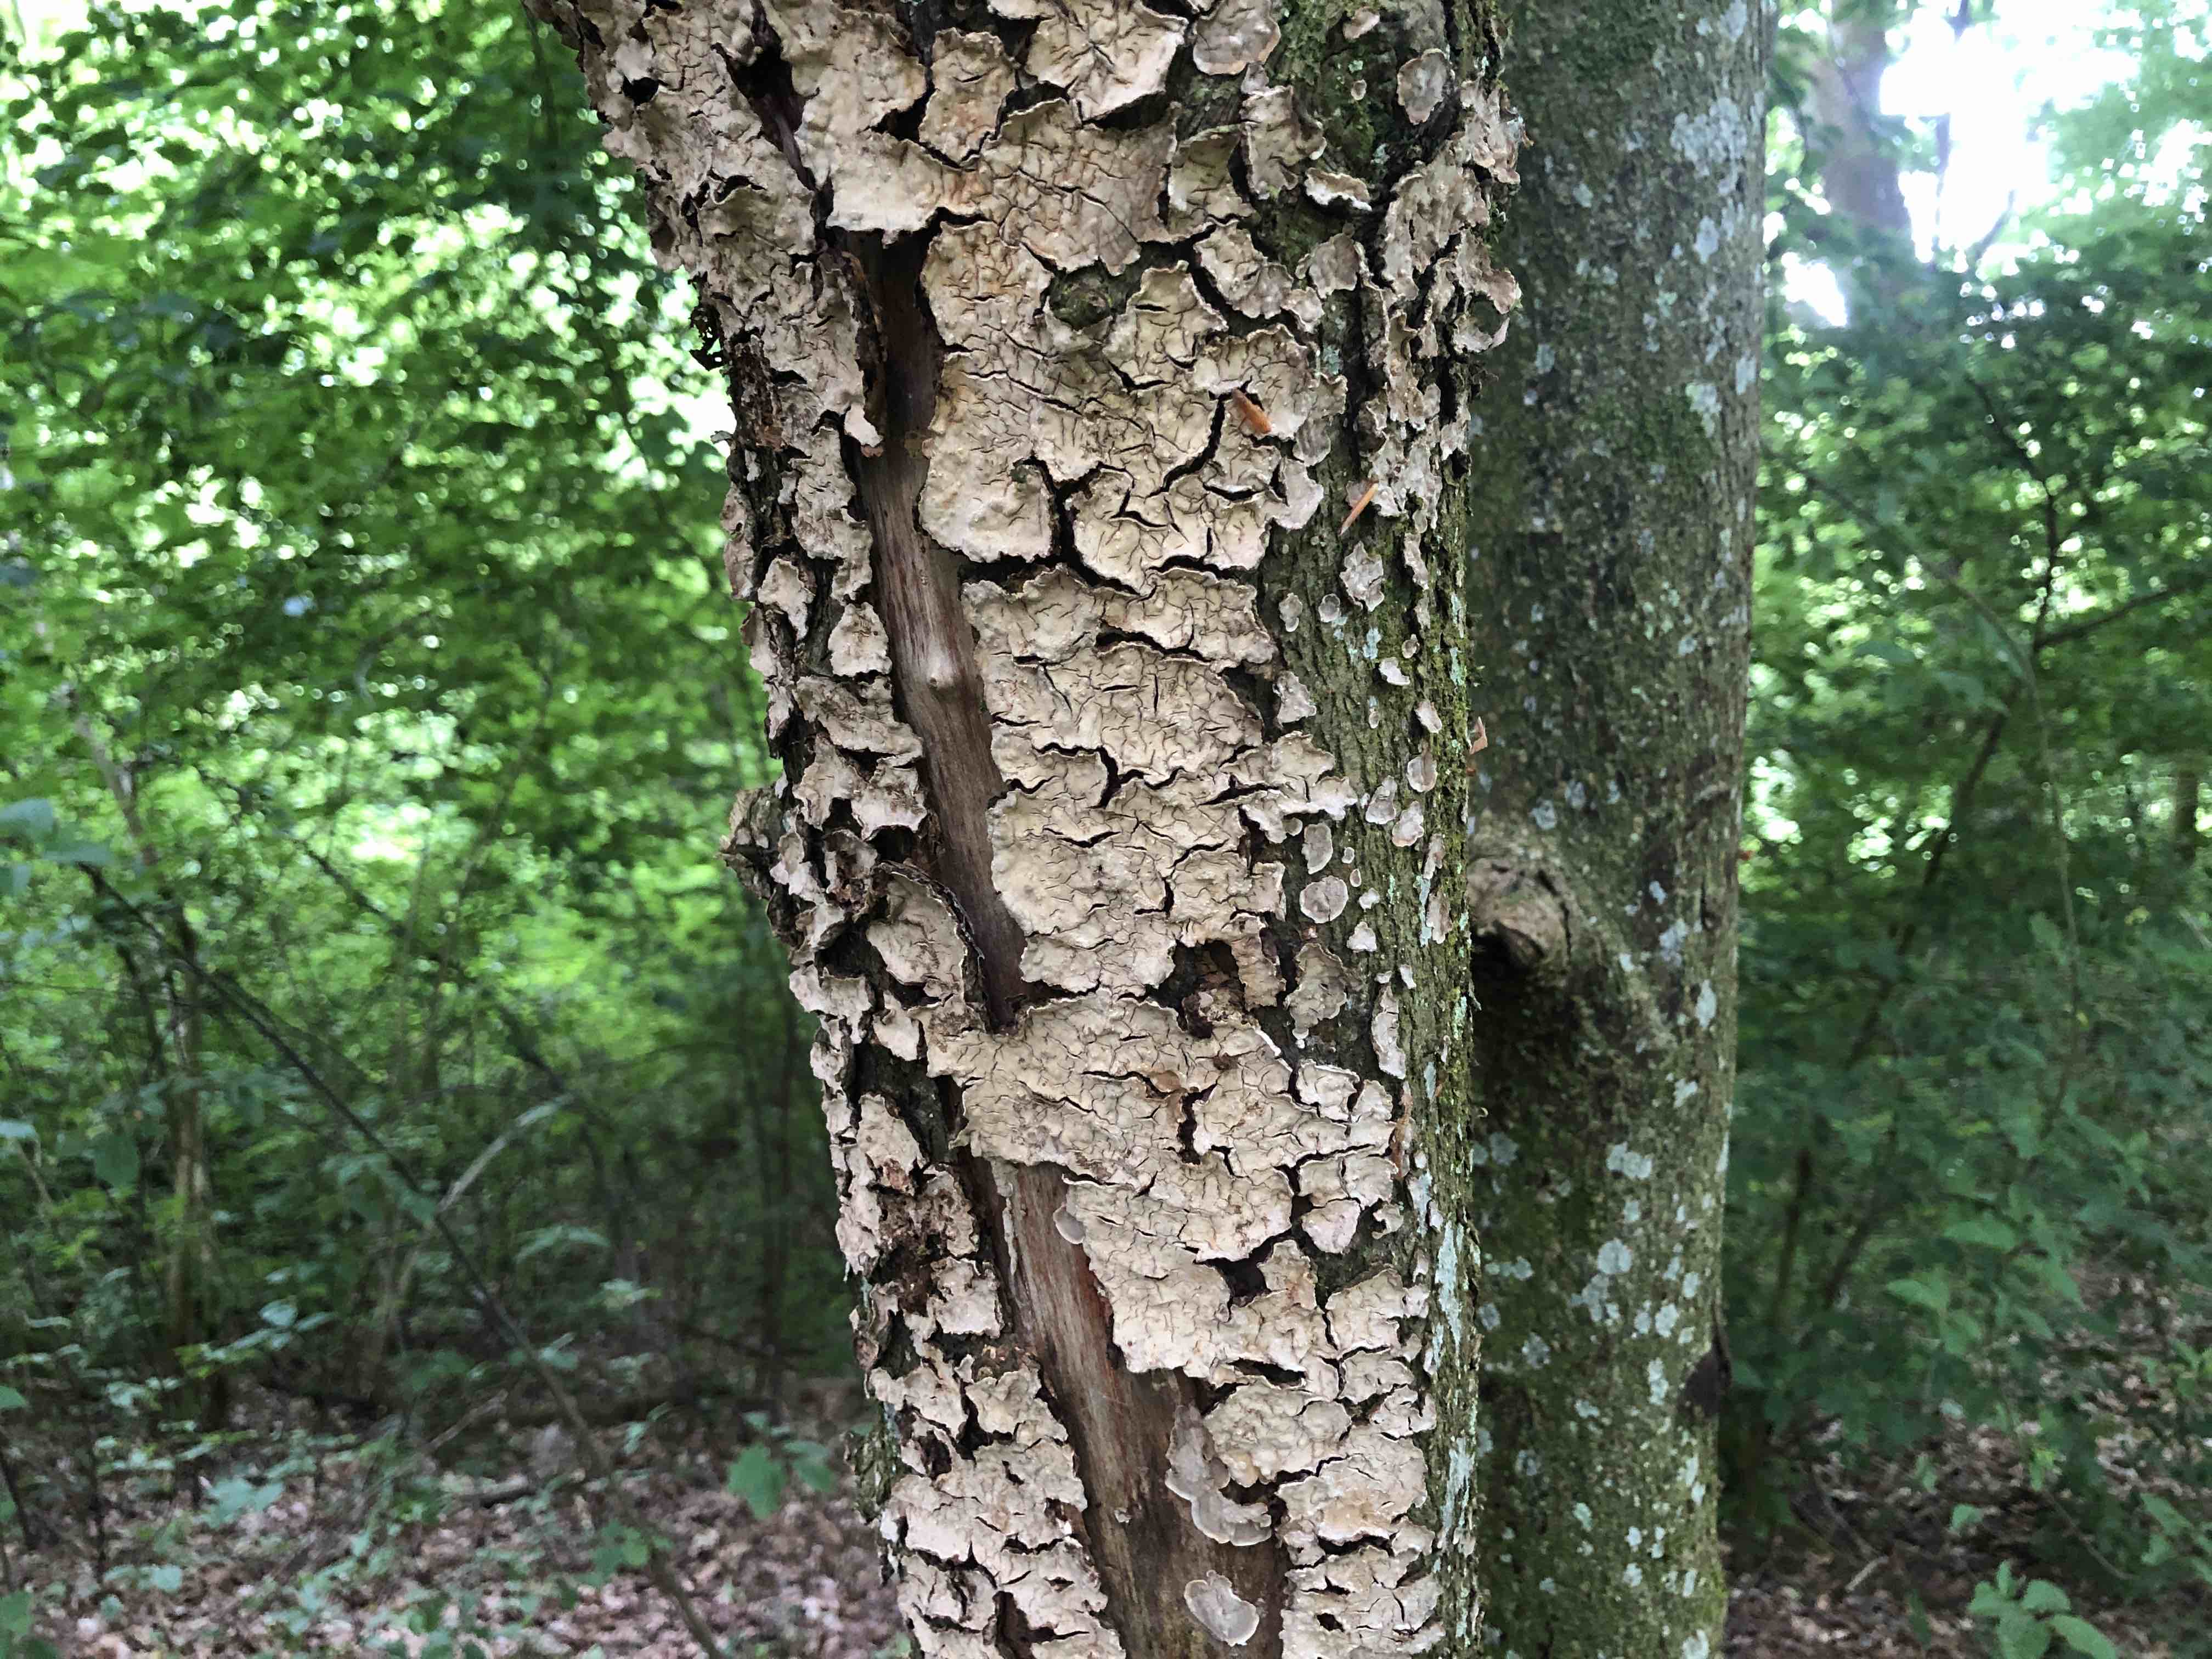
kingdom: Fungi
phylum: Basidiomycota
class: Agaricomycetes
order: Russulales
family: Stereaceae
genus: Stereum
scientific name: Stereum rugosum
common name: rynket lædersvamp
